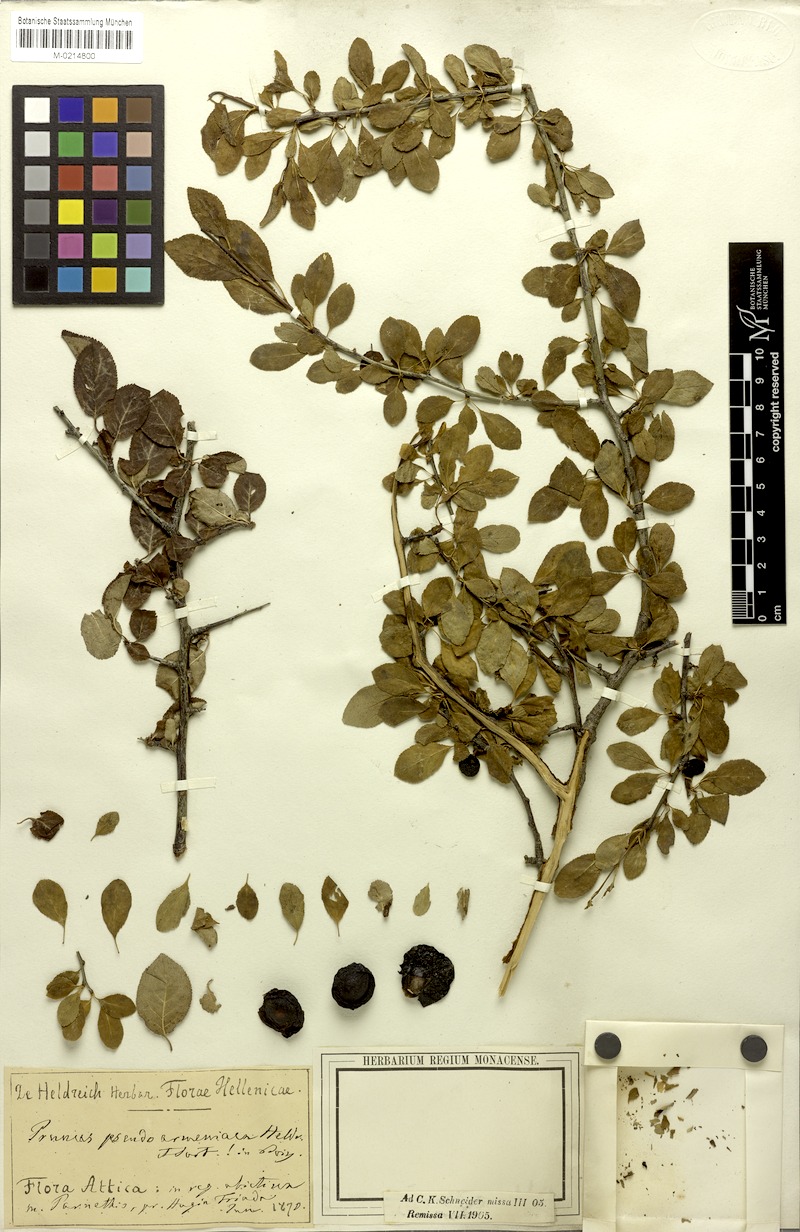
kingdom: Plantae
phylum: Tracheophyta
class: Magnoliopsida
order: Rosales
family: Rosaceae
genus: Prunus
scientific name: Prunus cocomilia
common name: Italian plum
